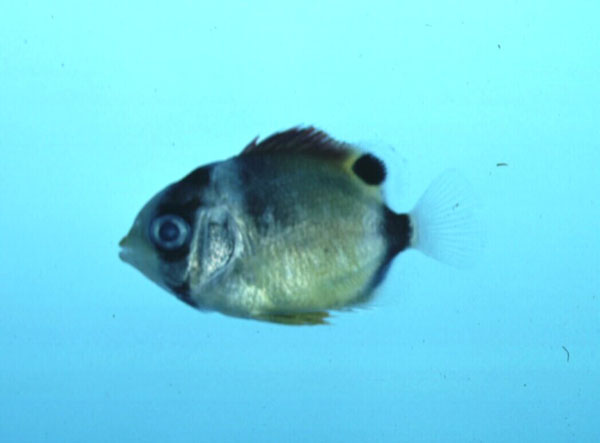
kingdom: Animalia
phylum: Chordata
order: Perciformes
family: Chaetodontidae
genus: Chaetodon
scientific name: Chaetodon lunula
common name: Raccoon butterflyfish
